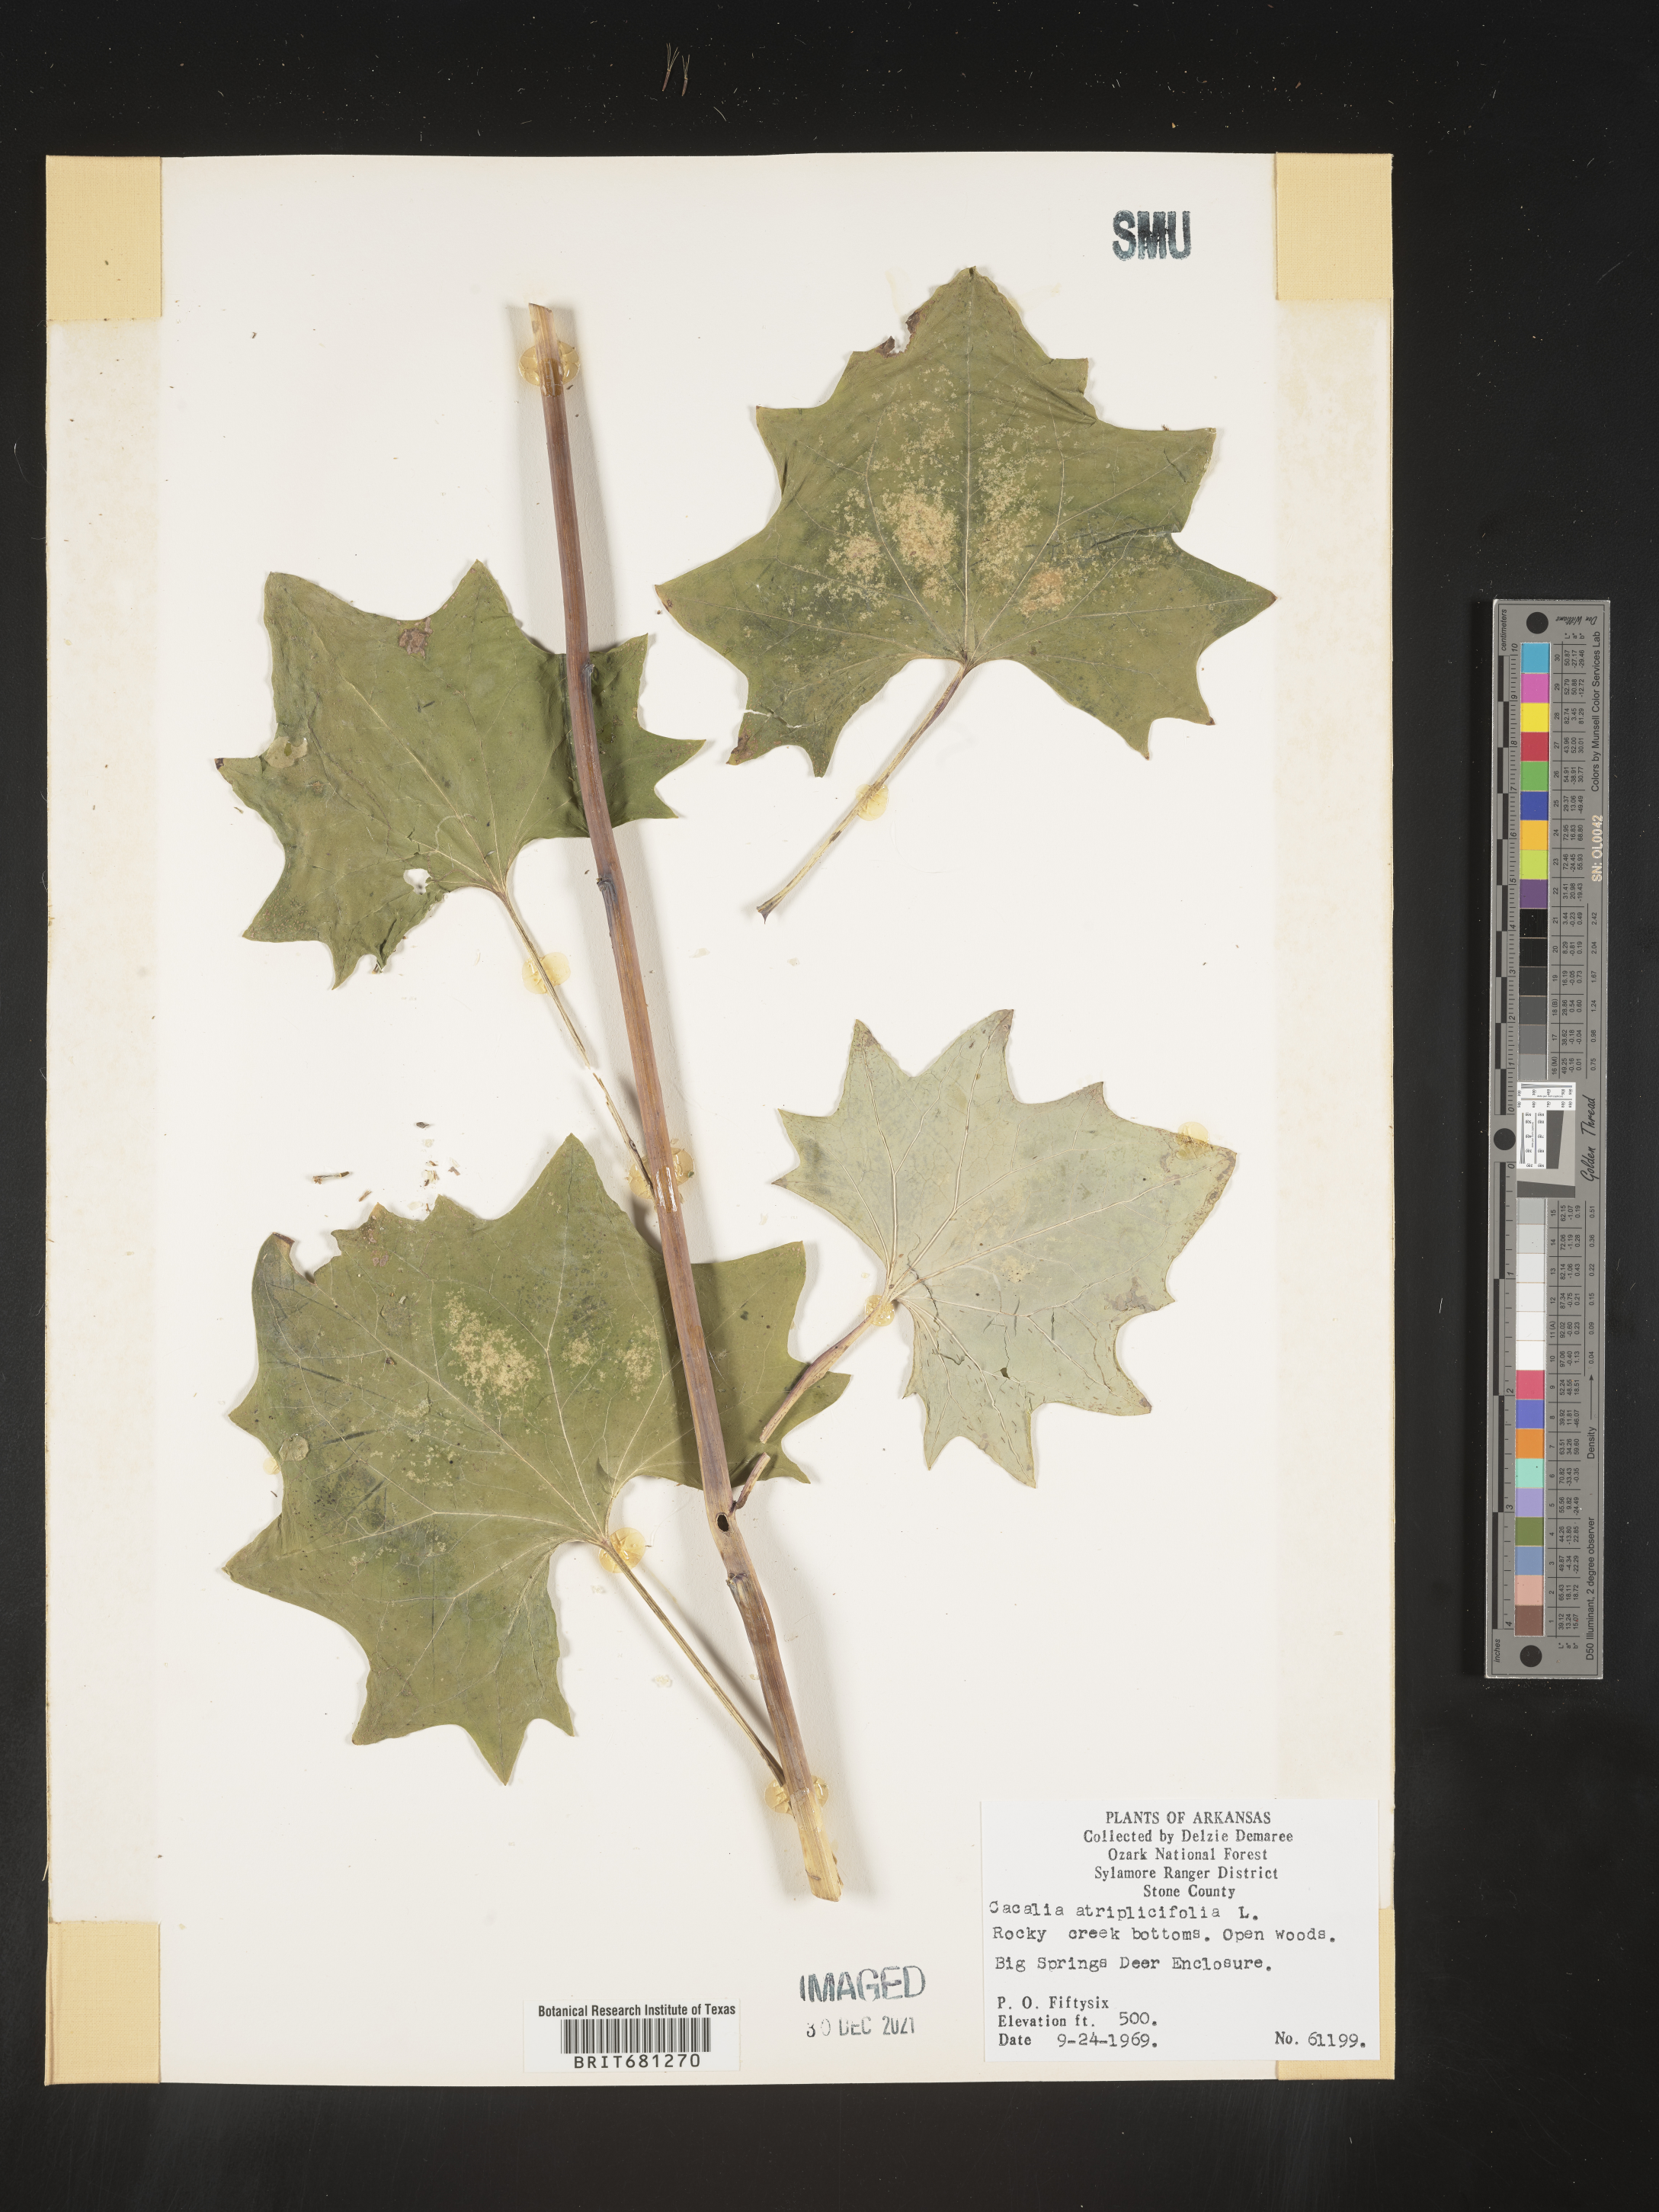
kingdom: Plantae
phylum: Tracheophyta
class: Magnoliopsida
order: Asterales
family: Asteraceae
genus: Arnoglossum
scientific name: Arnoglossum atriplicifolium
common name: Pale indian-plantain
